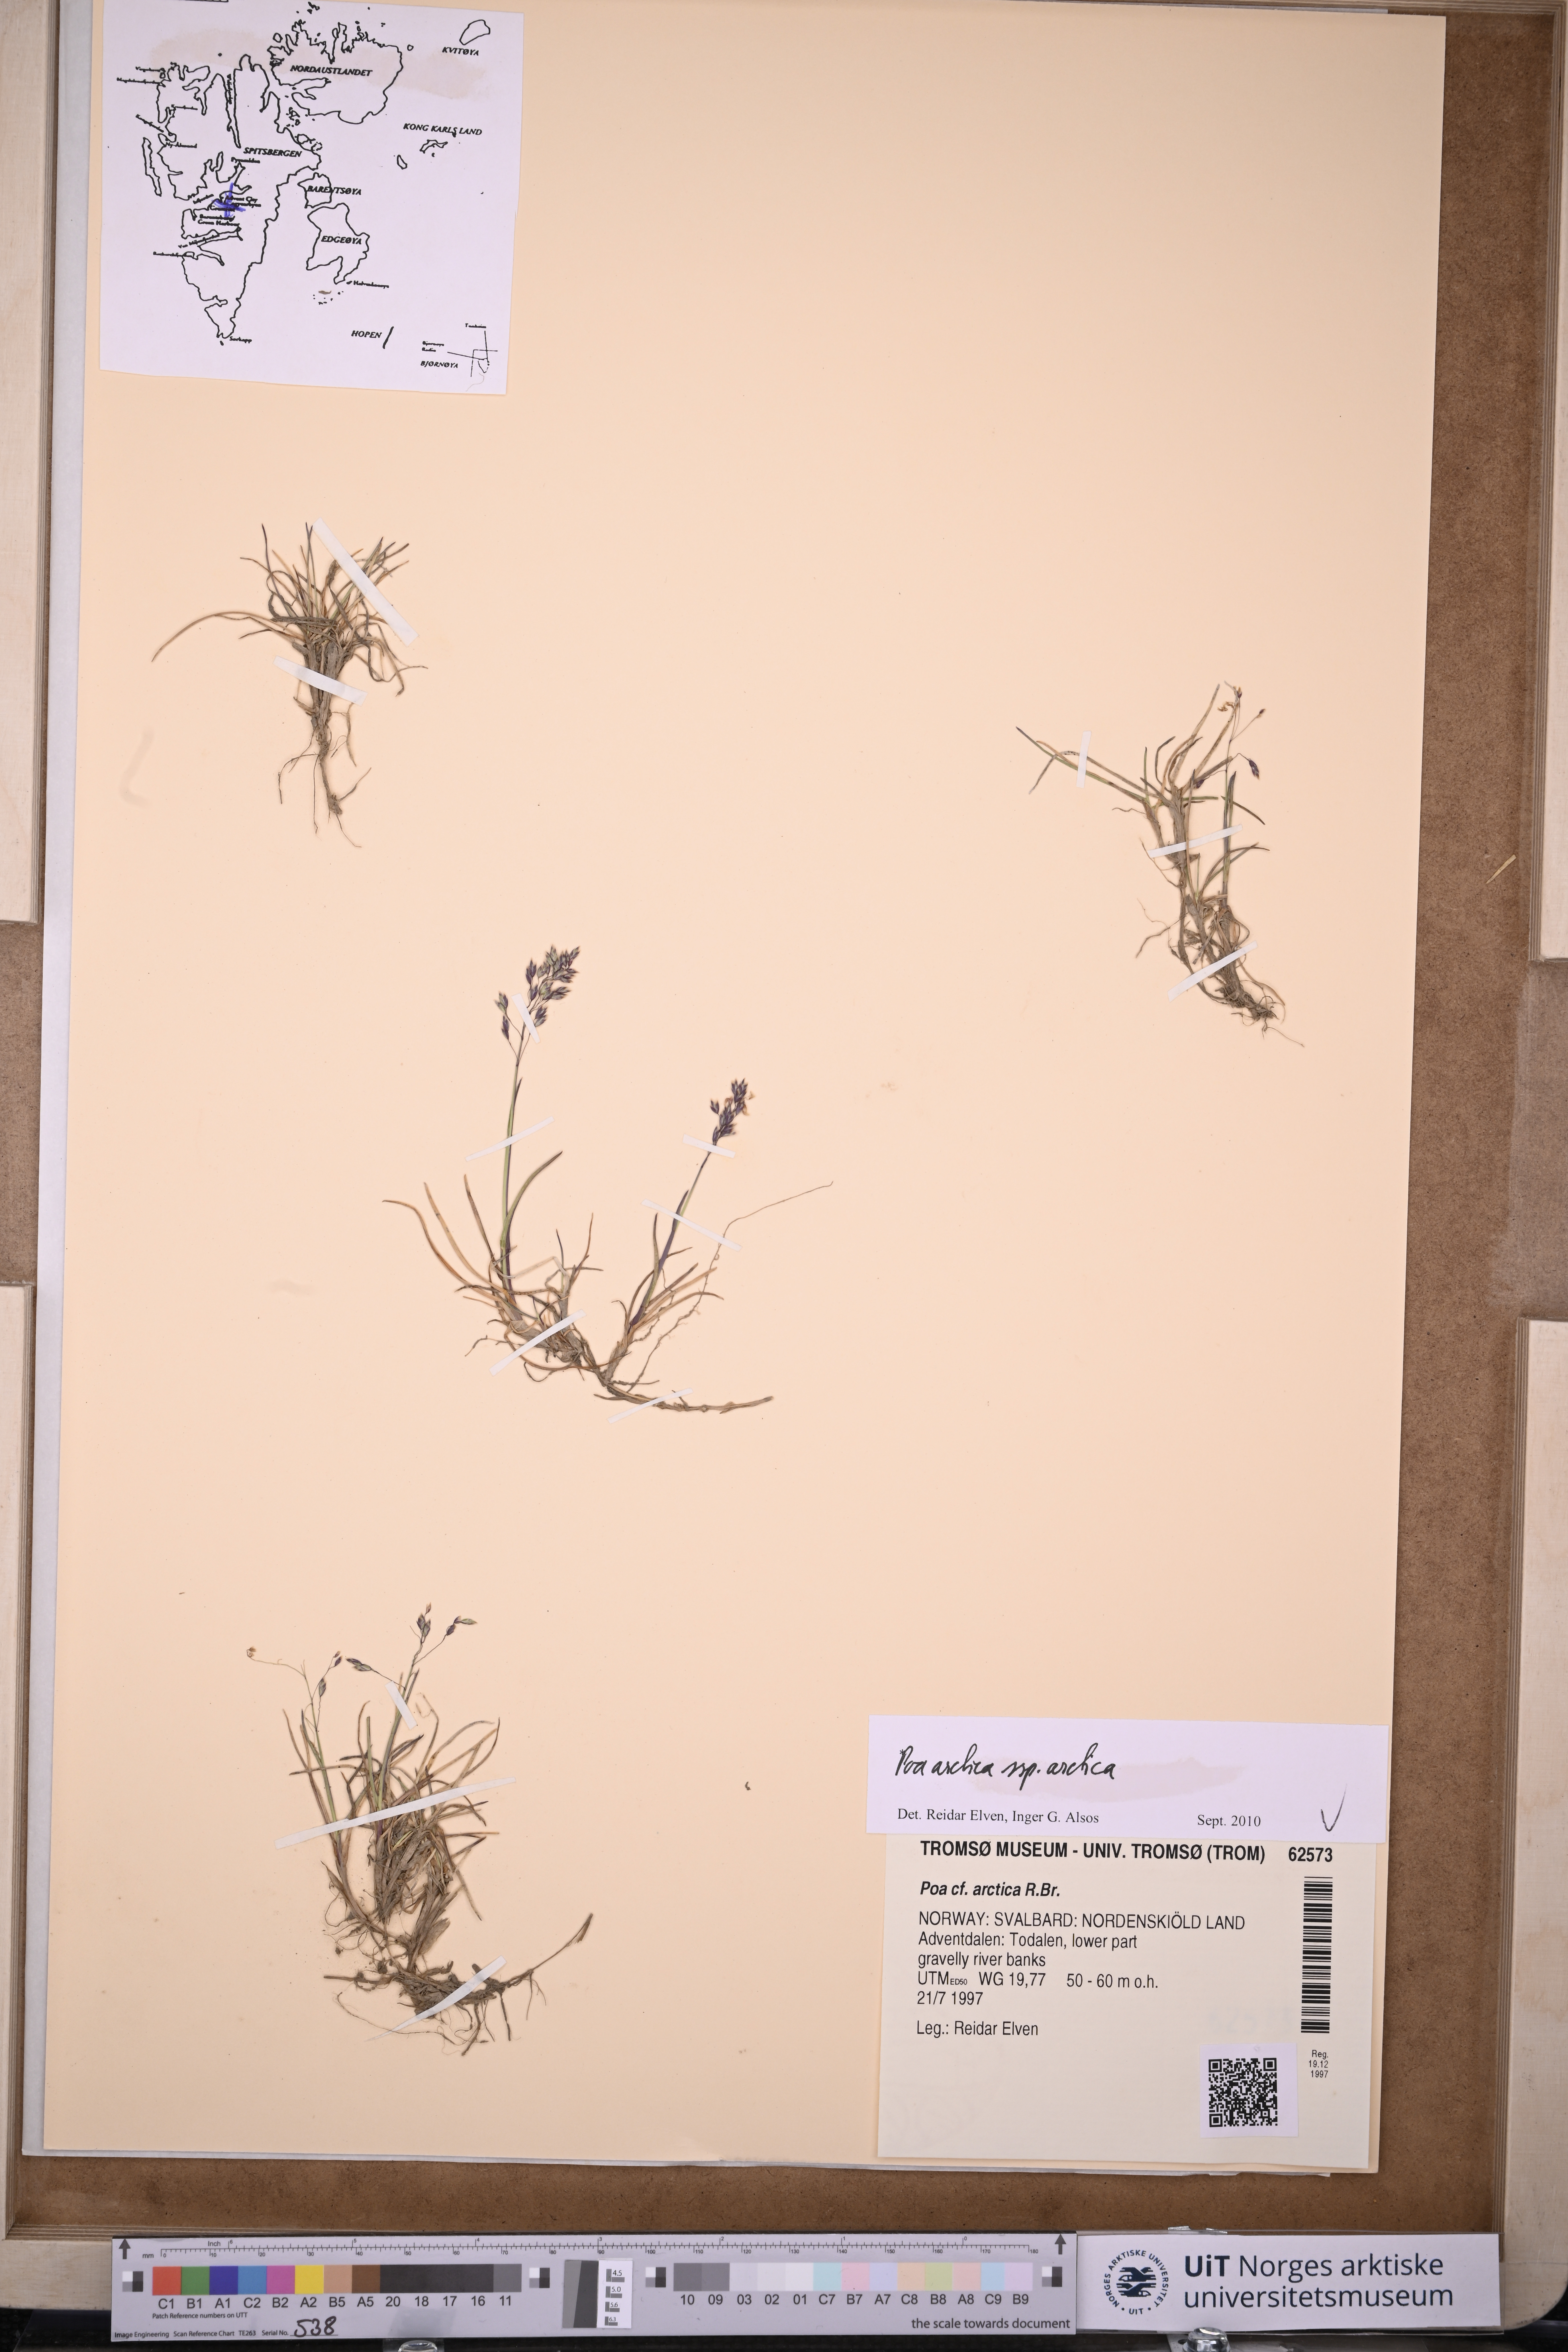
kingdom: Plantae
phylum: Tracheophyta
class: Liliopsida
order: Poales
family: Poaceae
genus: Poa
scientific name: Poa arctica
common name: Arctic bluegrass
